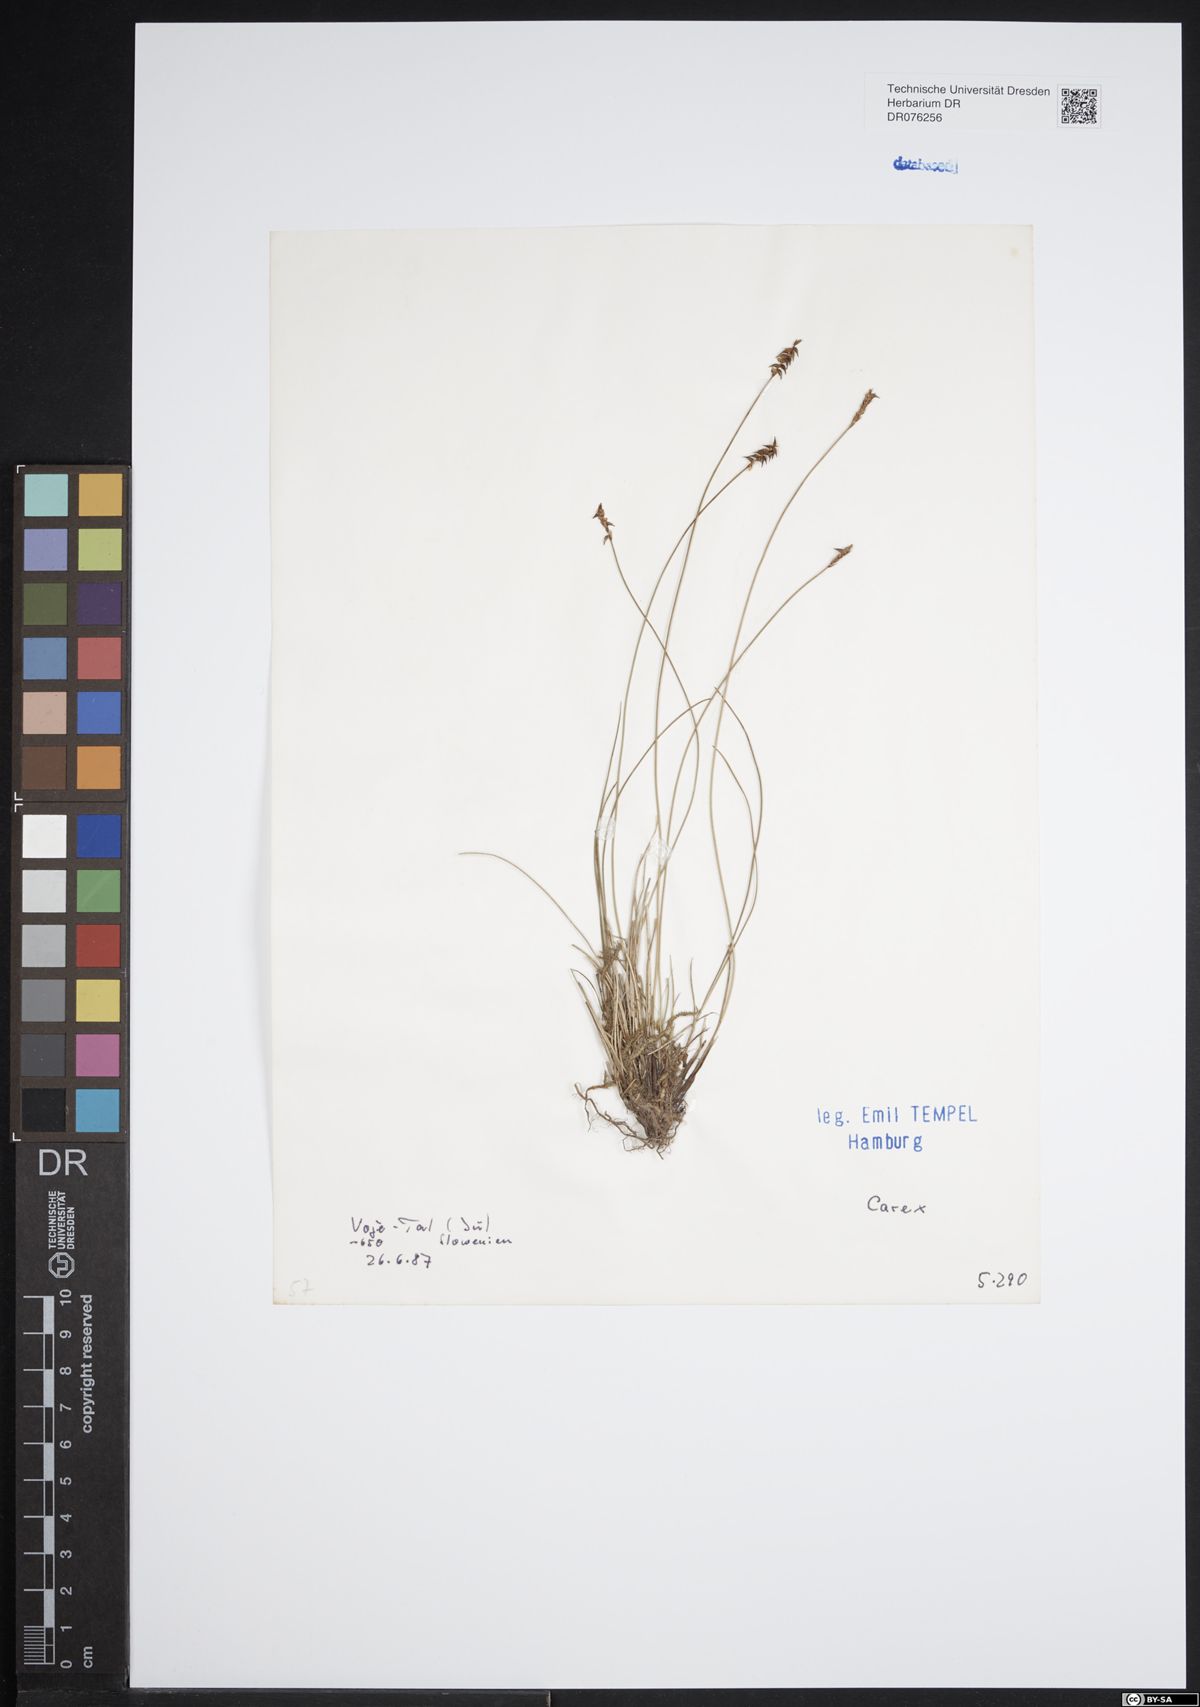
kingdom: Plantae
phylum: Tracheophyta
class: Liliopsida
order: Poales
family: Cyperaceae
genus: Carex
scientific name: Carex
